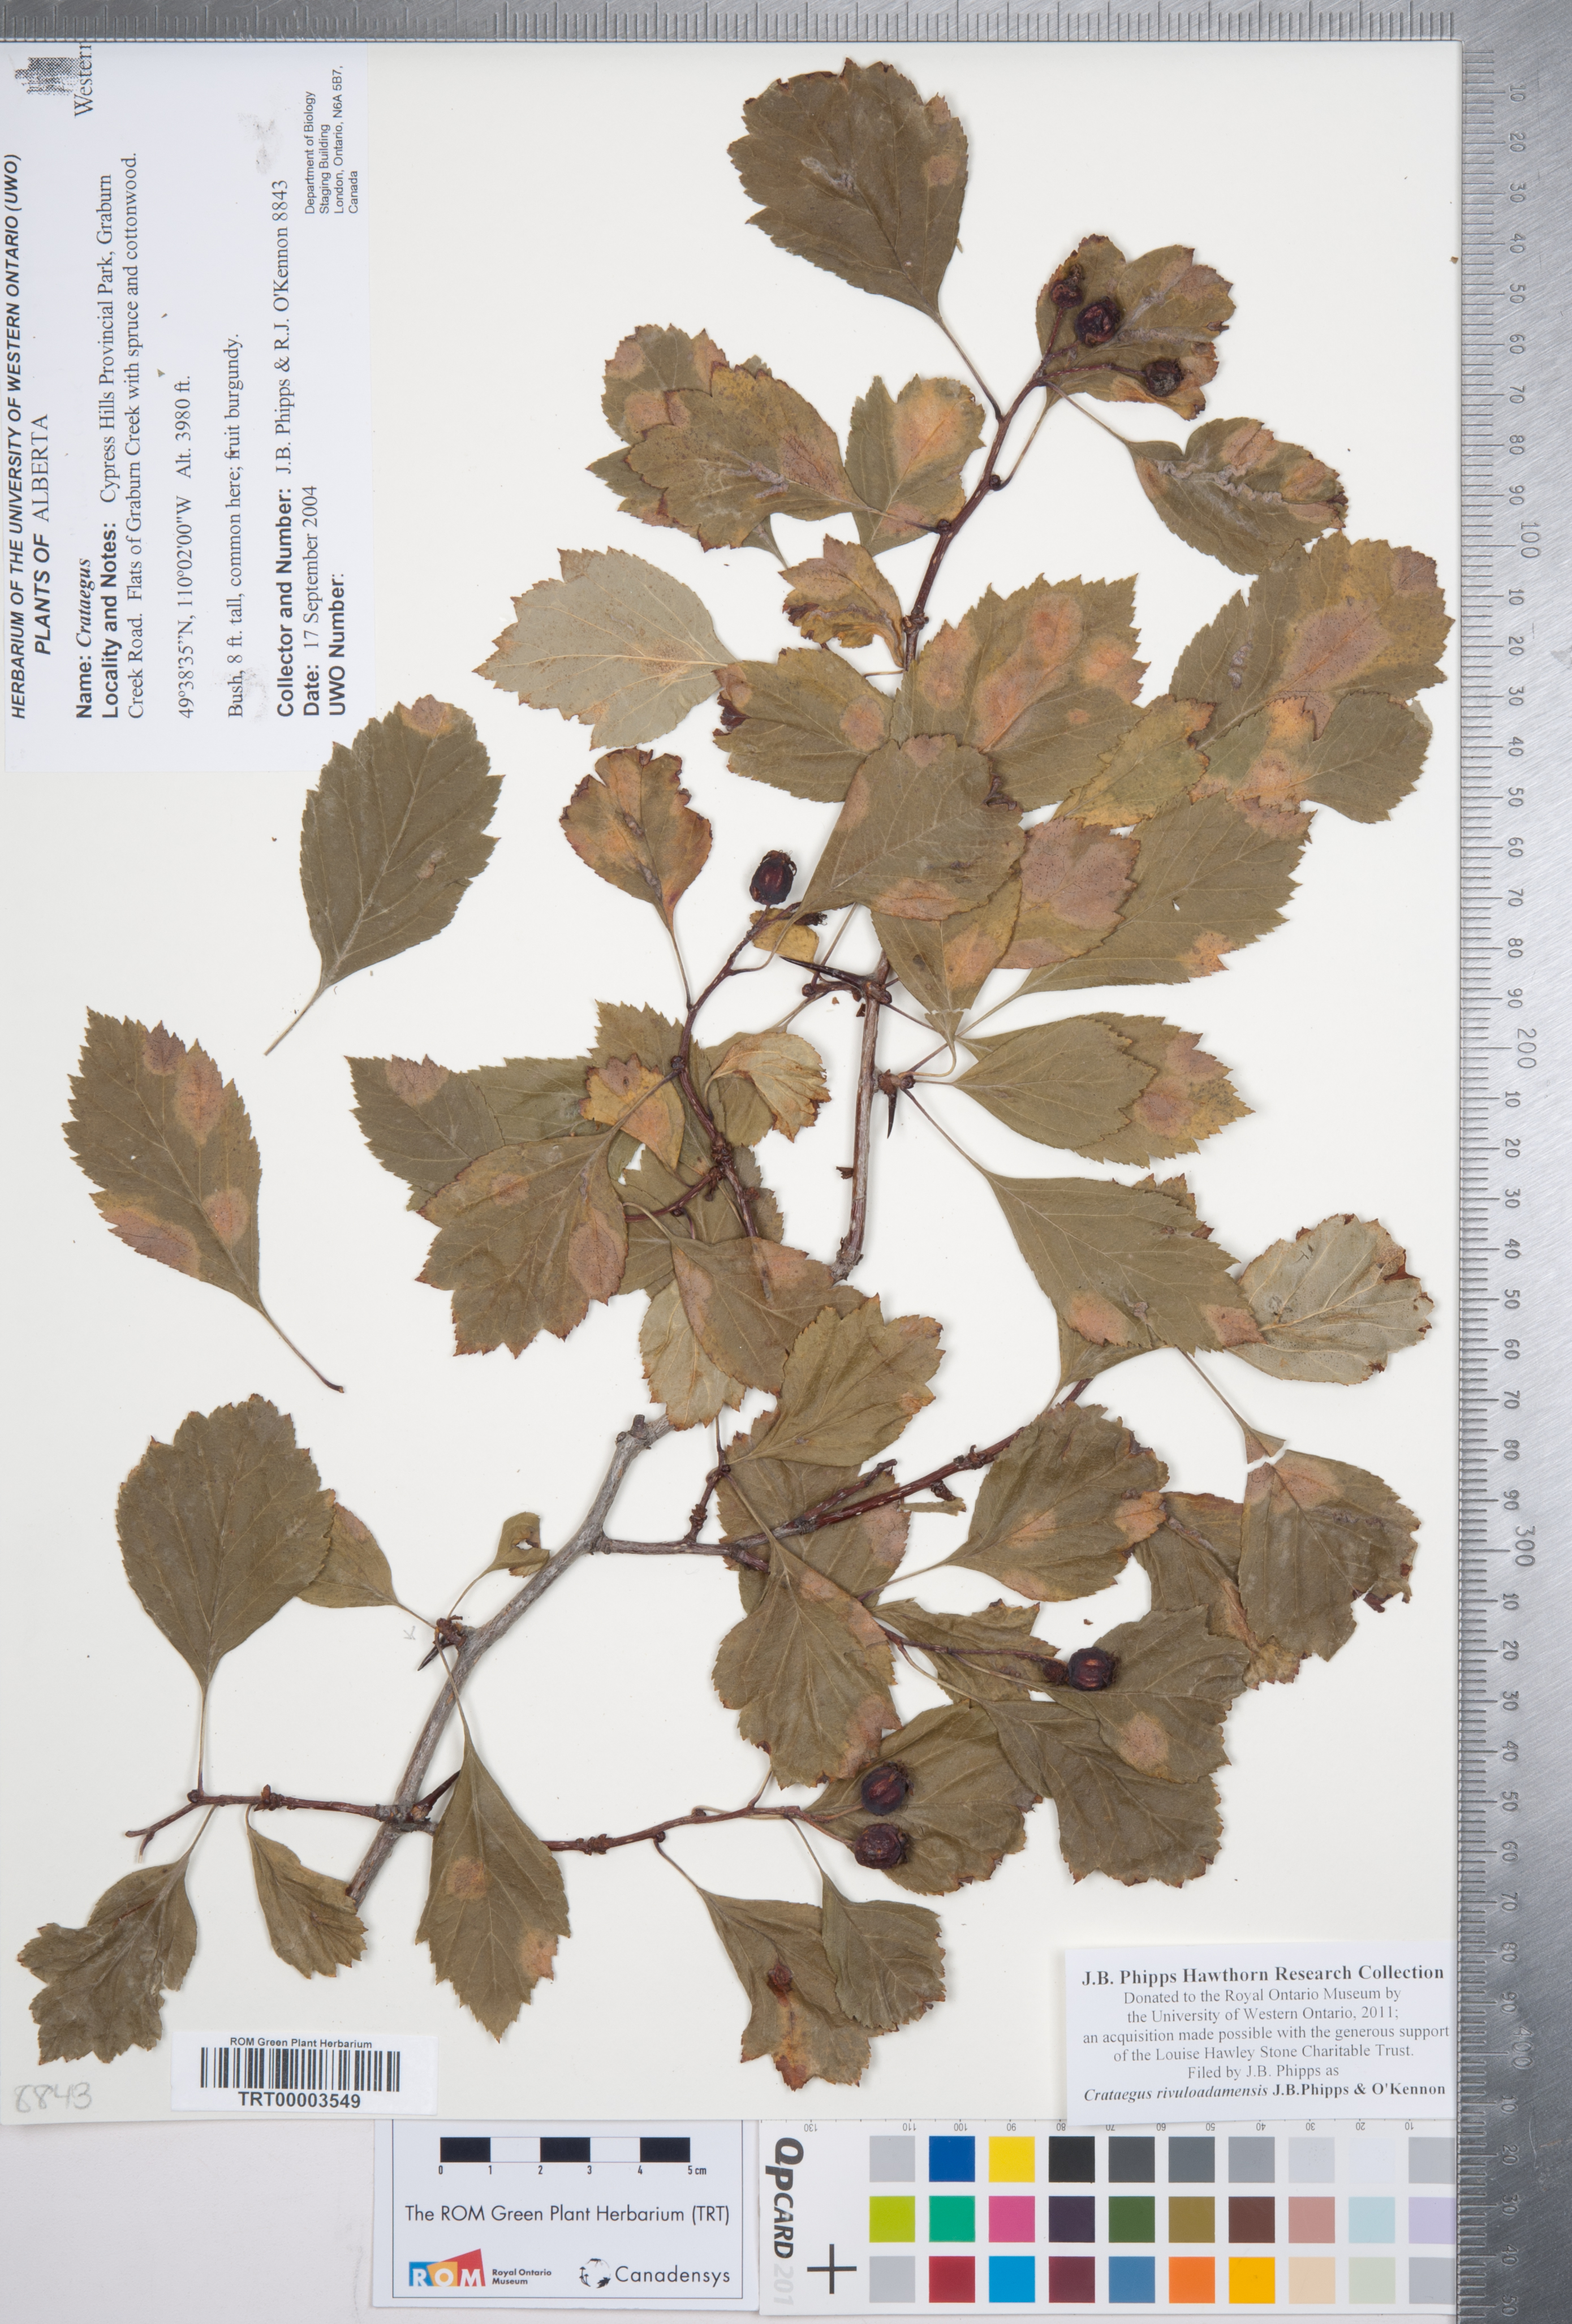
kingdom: Plantae
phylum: Tracheophyta
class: Magnoliopsida
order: Rosales
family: Rosaceae
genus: Crataegus
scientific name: Crataegus rivuloadamensis
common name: Adams creek hawthorn
